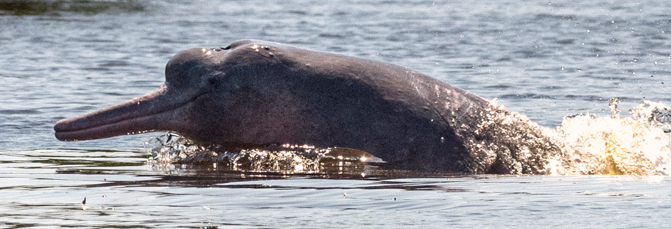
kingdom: Animalia
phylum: Chordata
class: Mammalia
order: Cetacea
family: Iniidae
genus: Inia
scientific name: Inia geoffrensis
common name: Amazon River Dolphin
